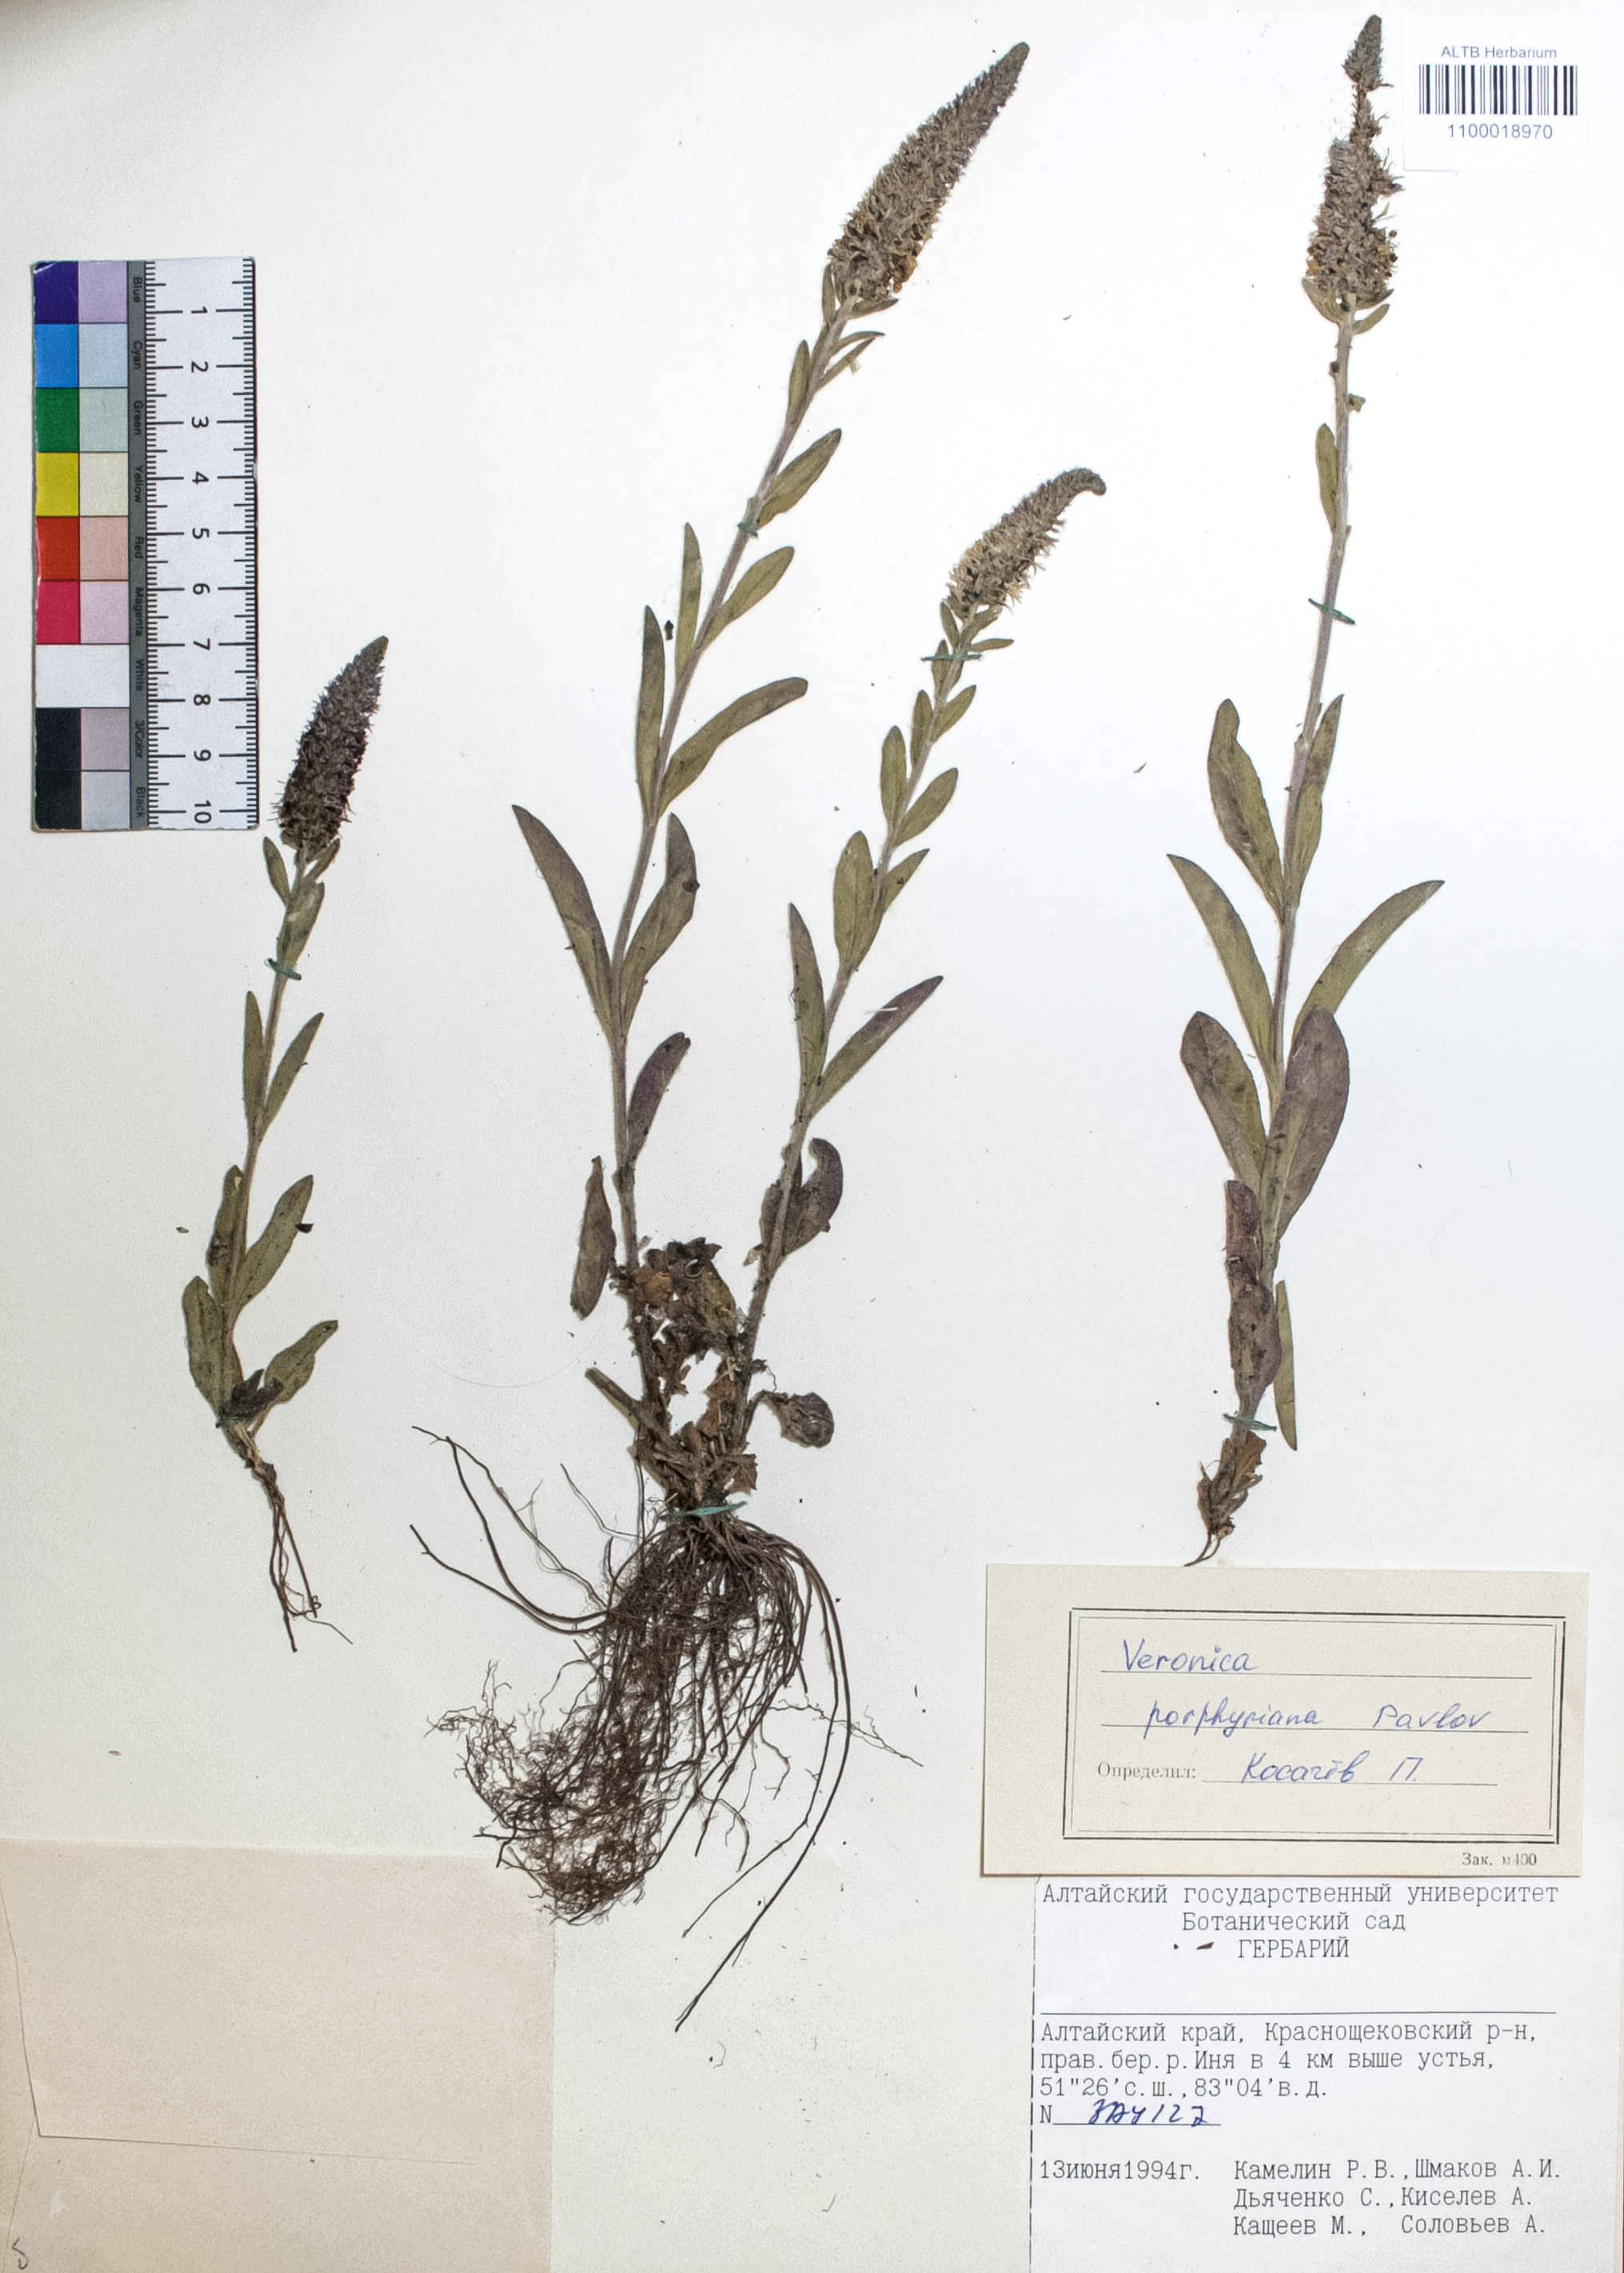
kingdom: Plantae
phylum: Tracheophyta
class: Magnoliopsida
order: Lamiales
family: Plantaginaceae
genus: Veronica
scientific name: Veronica porphyriana
